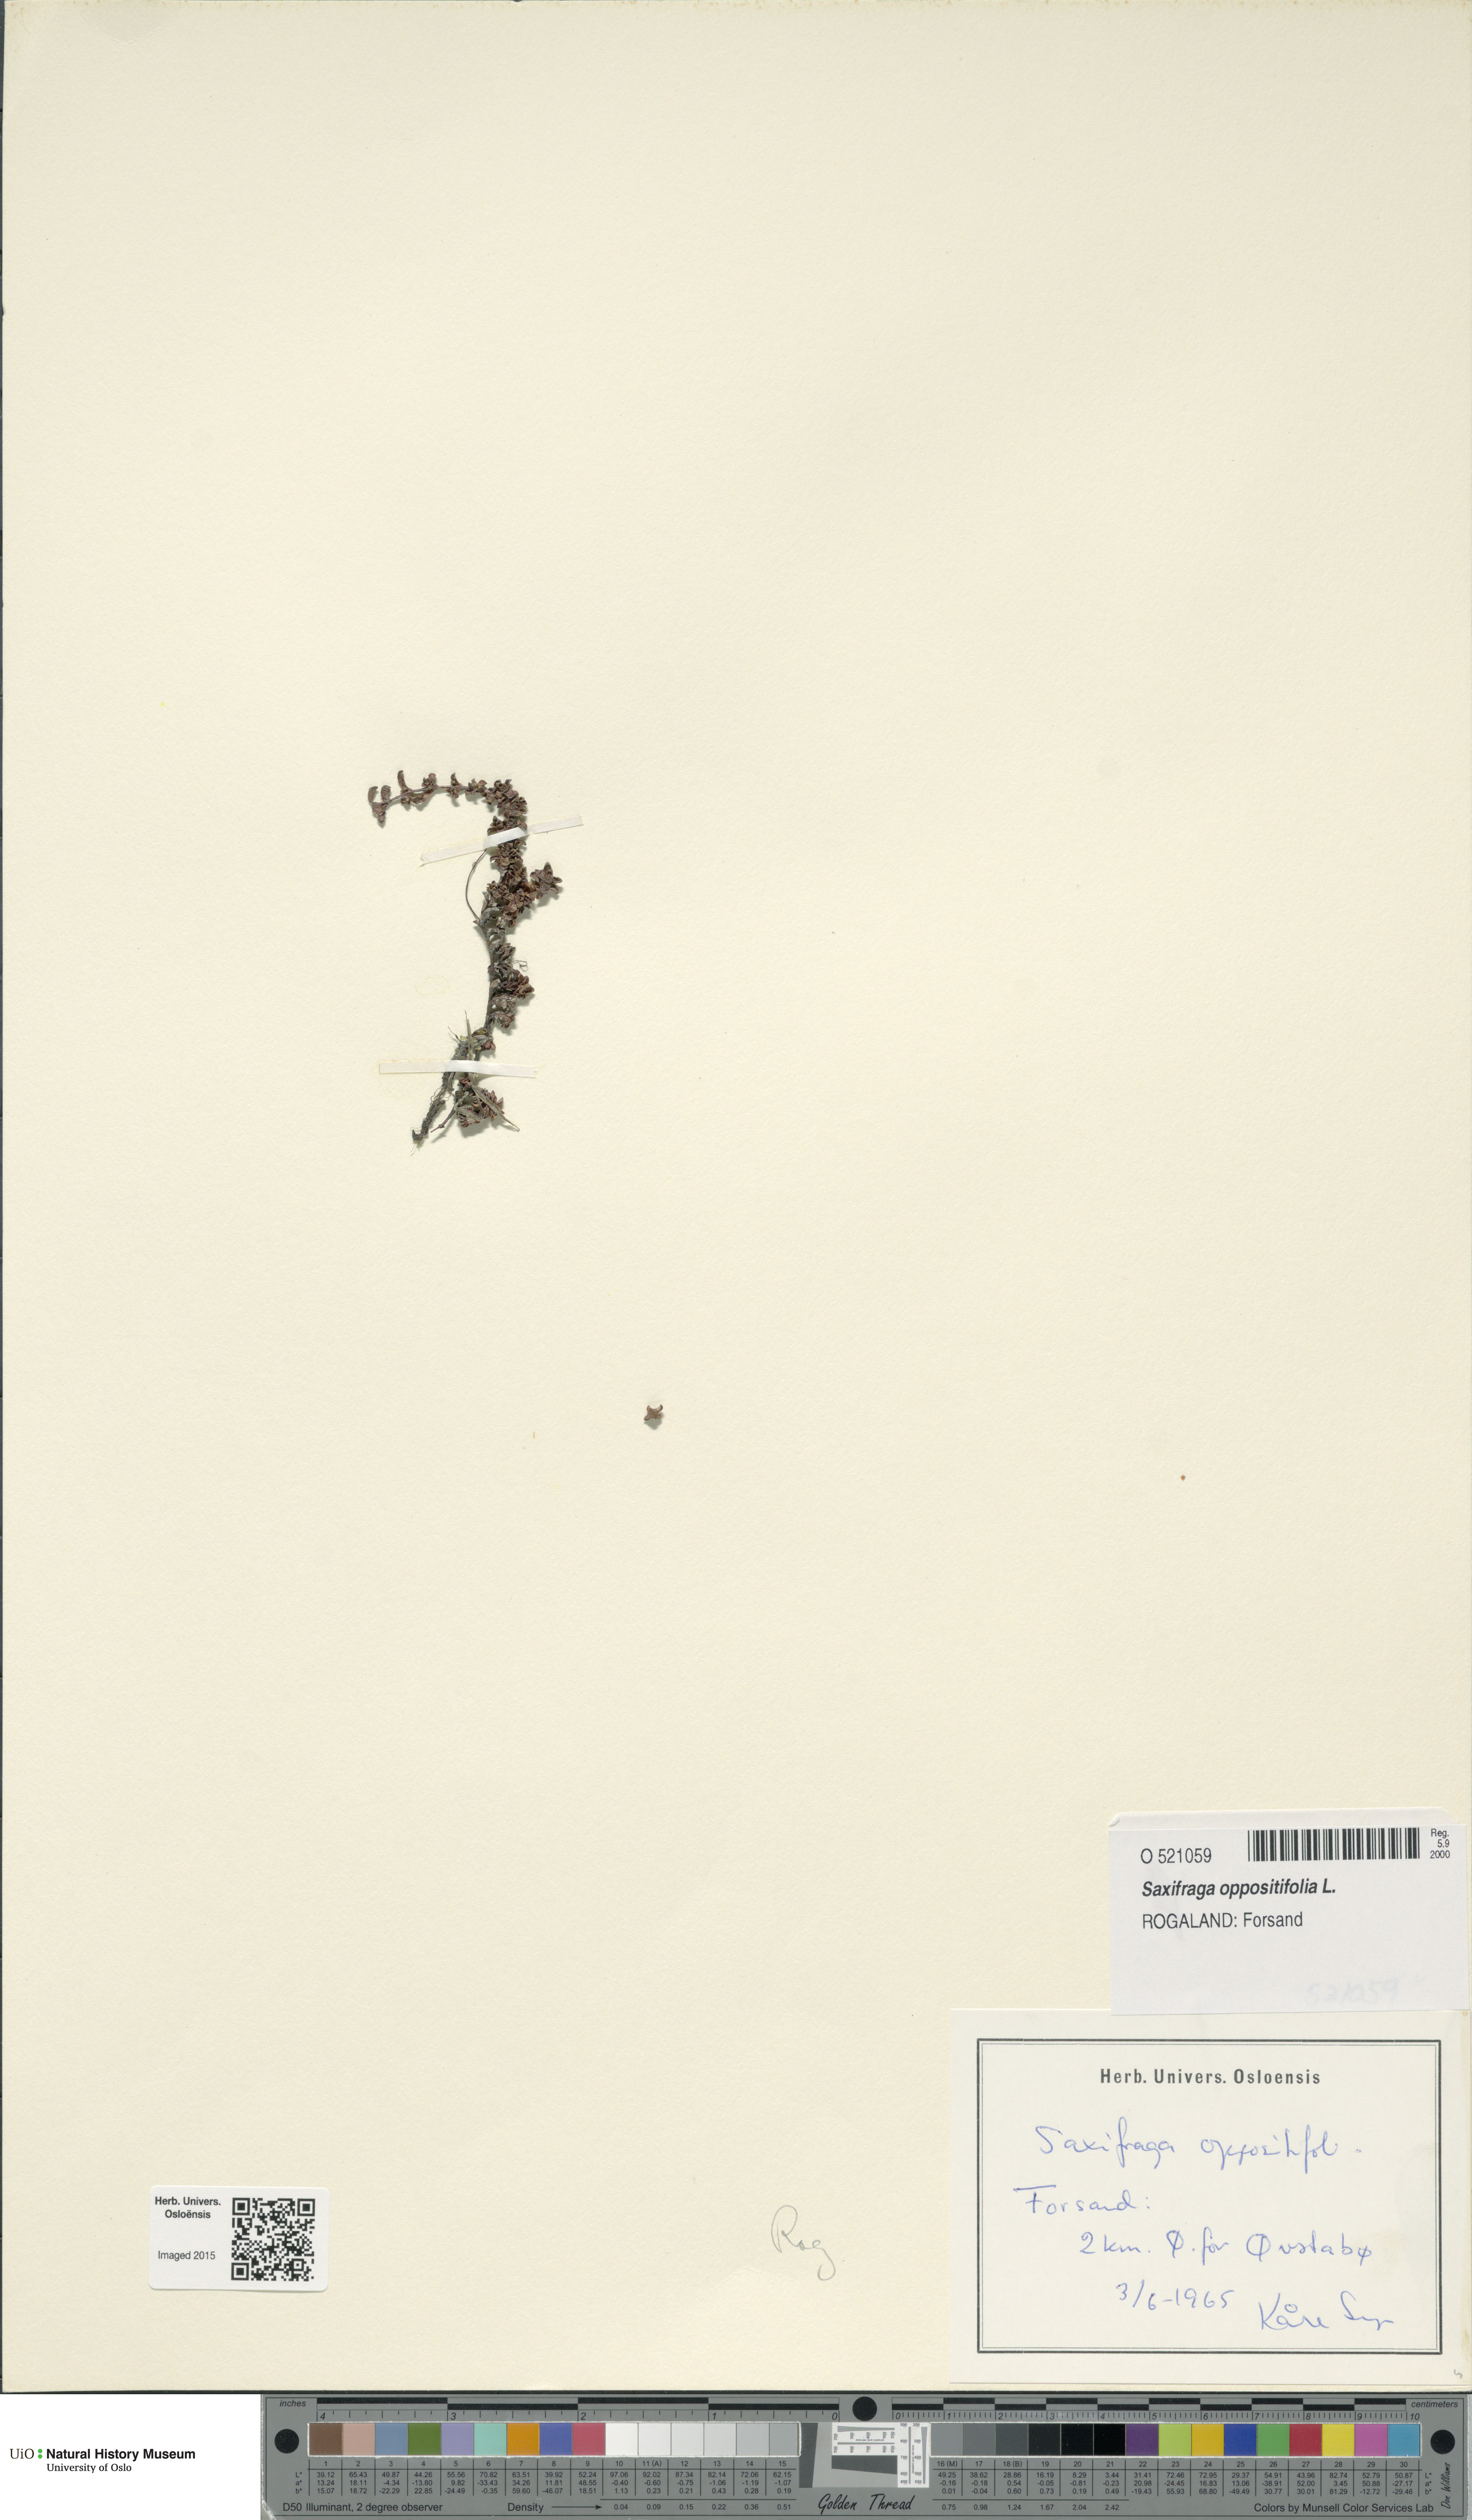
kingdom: Plantae
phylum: Tracheophyta
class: Magnoliopsida
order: Saxifragales
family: Saxifragaceae
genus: Saxifraga
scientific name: Saxifraga oppositifolia
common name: Purple saxifrage
